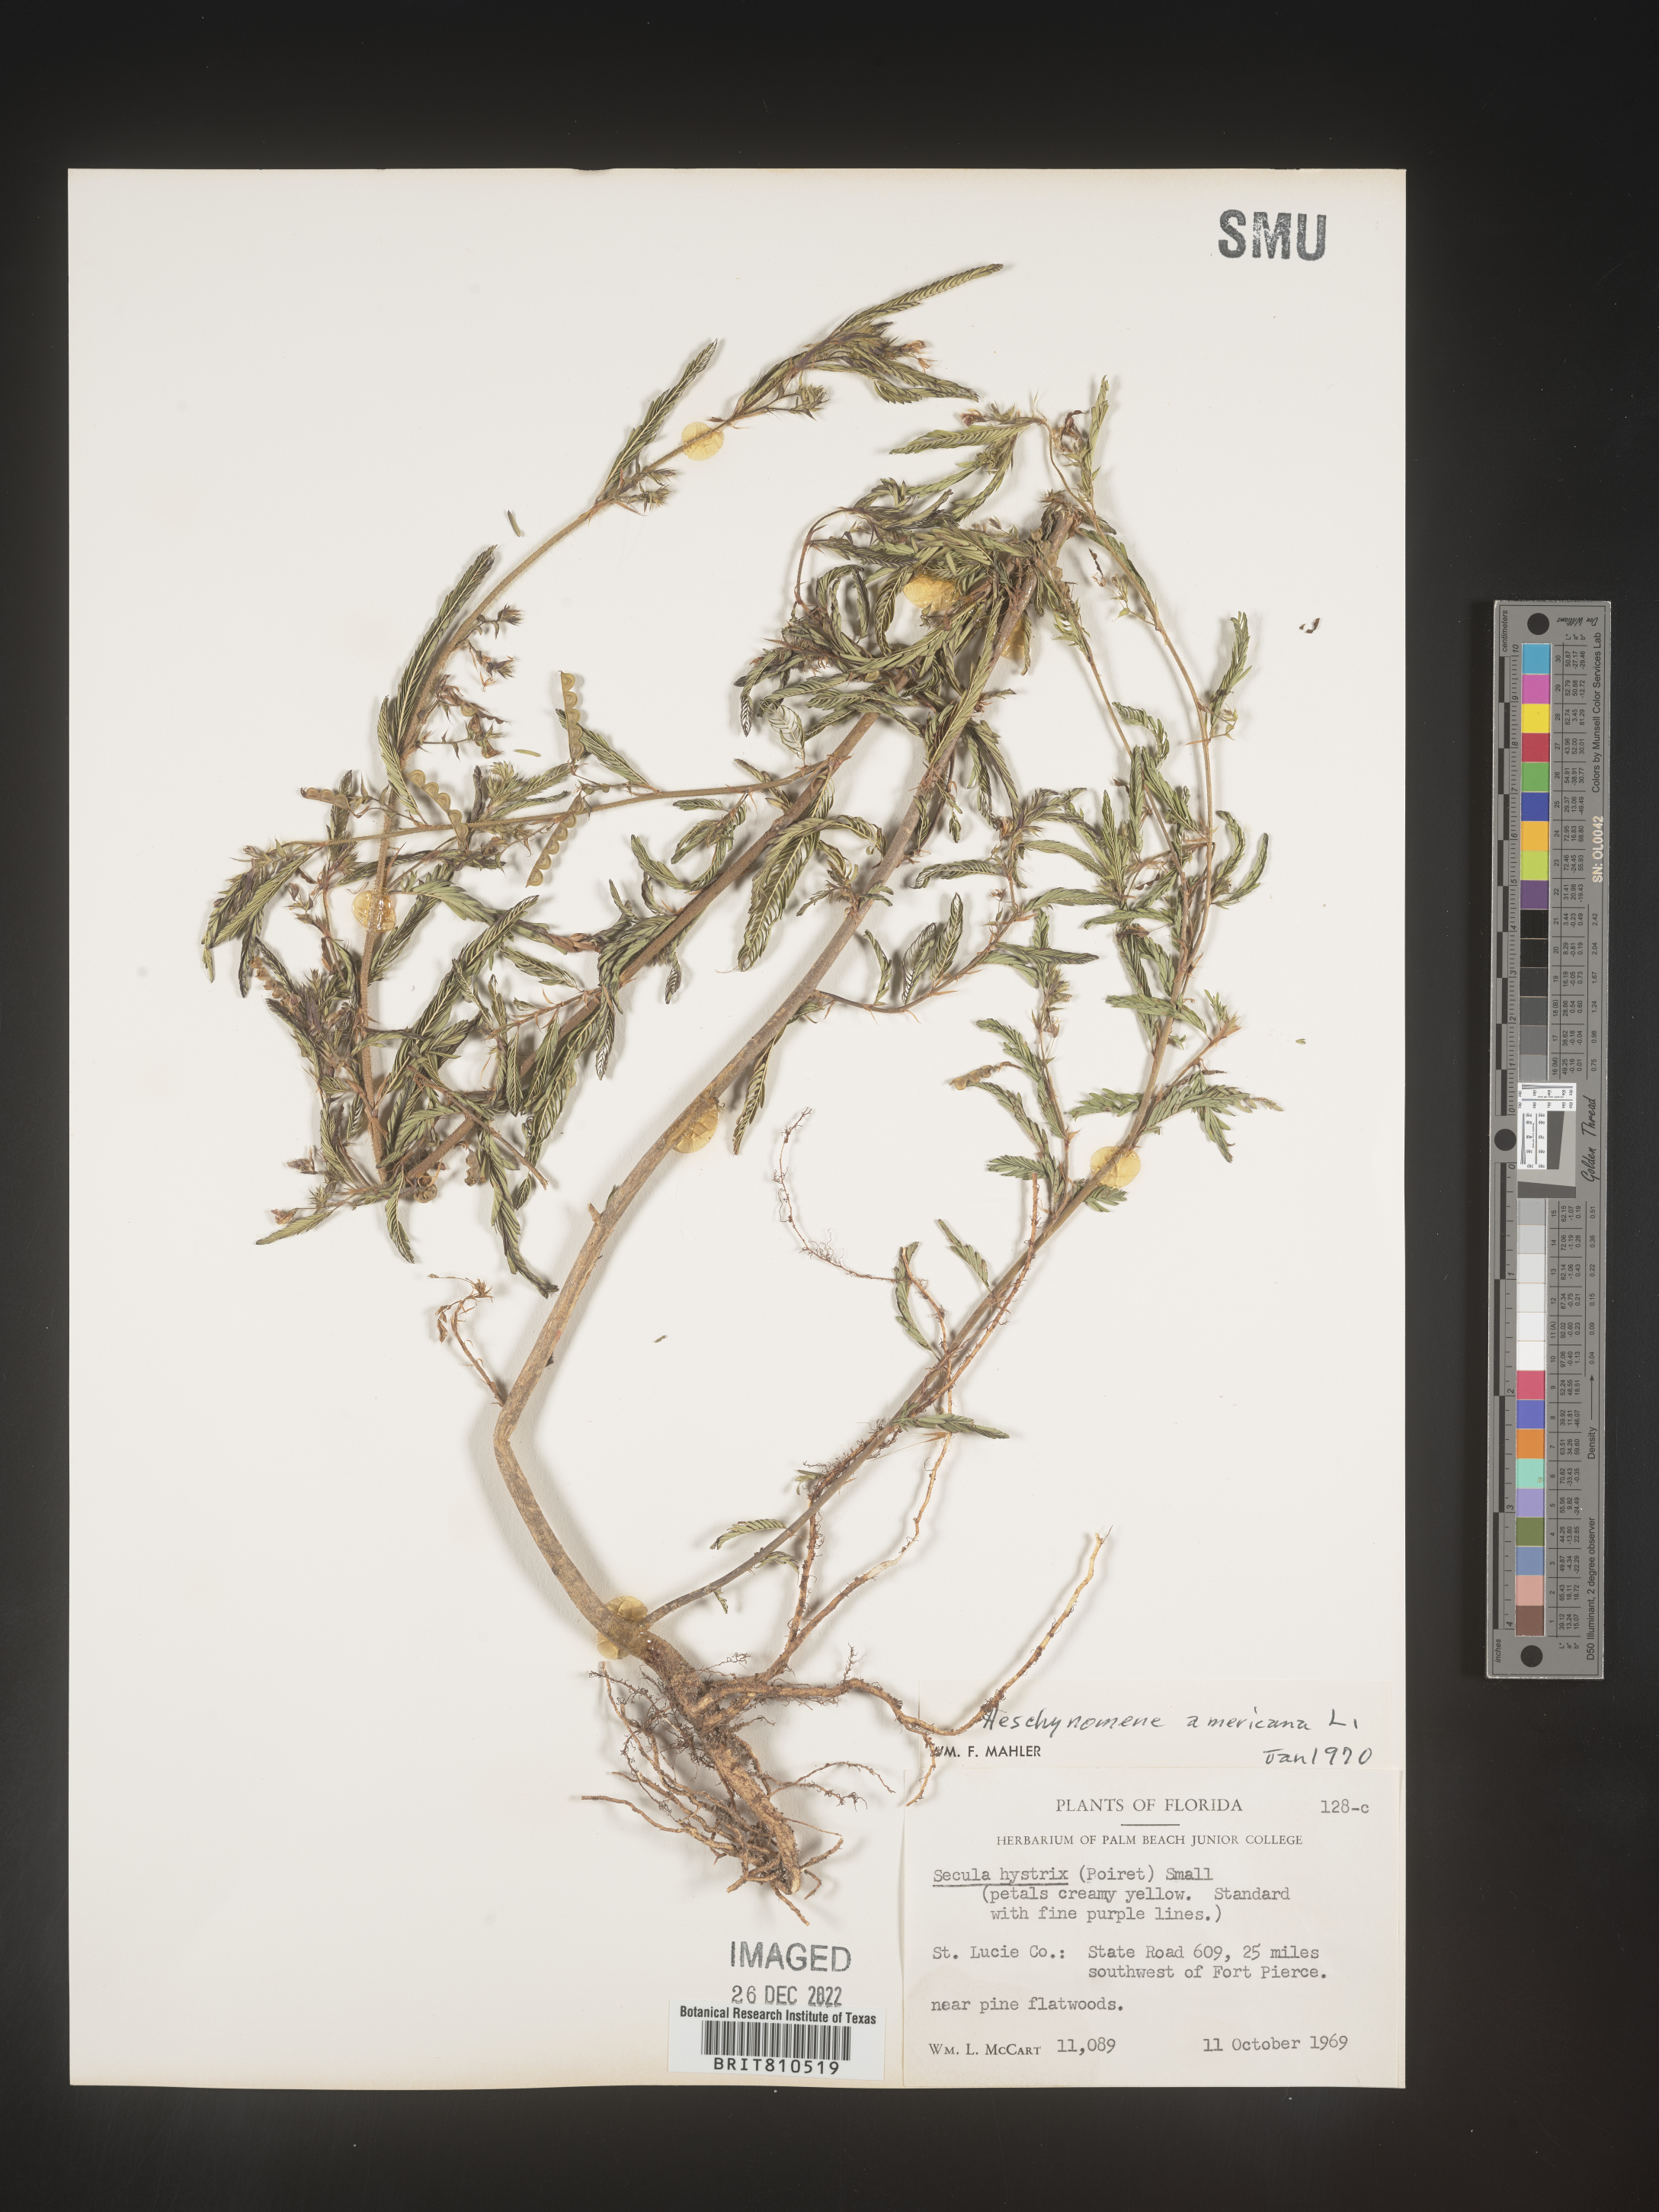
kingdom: Plantae
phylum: Tracheophyta
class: Magnoliopsida
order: Fabales
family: Fabaceae
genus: Aeschynomene
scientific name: Aeschynomene americana
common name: Joint-vetch
